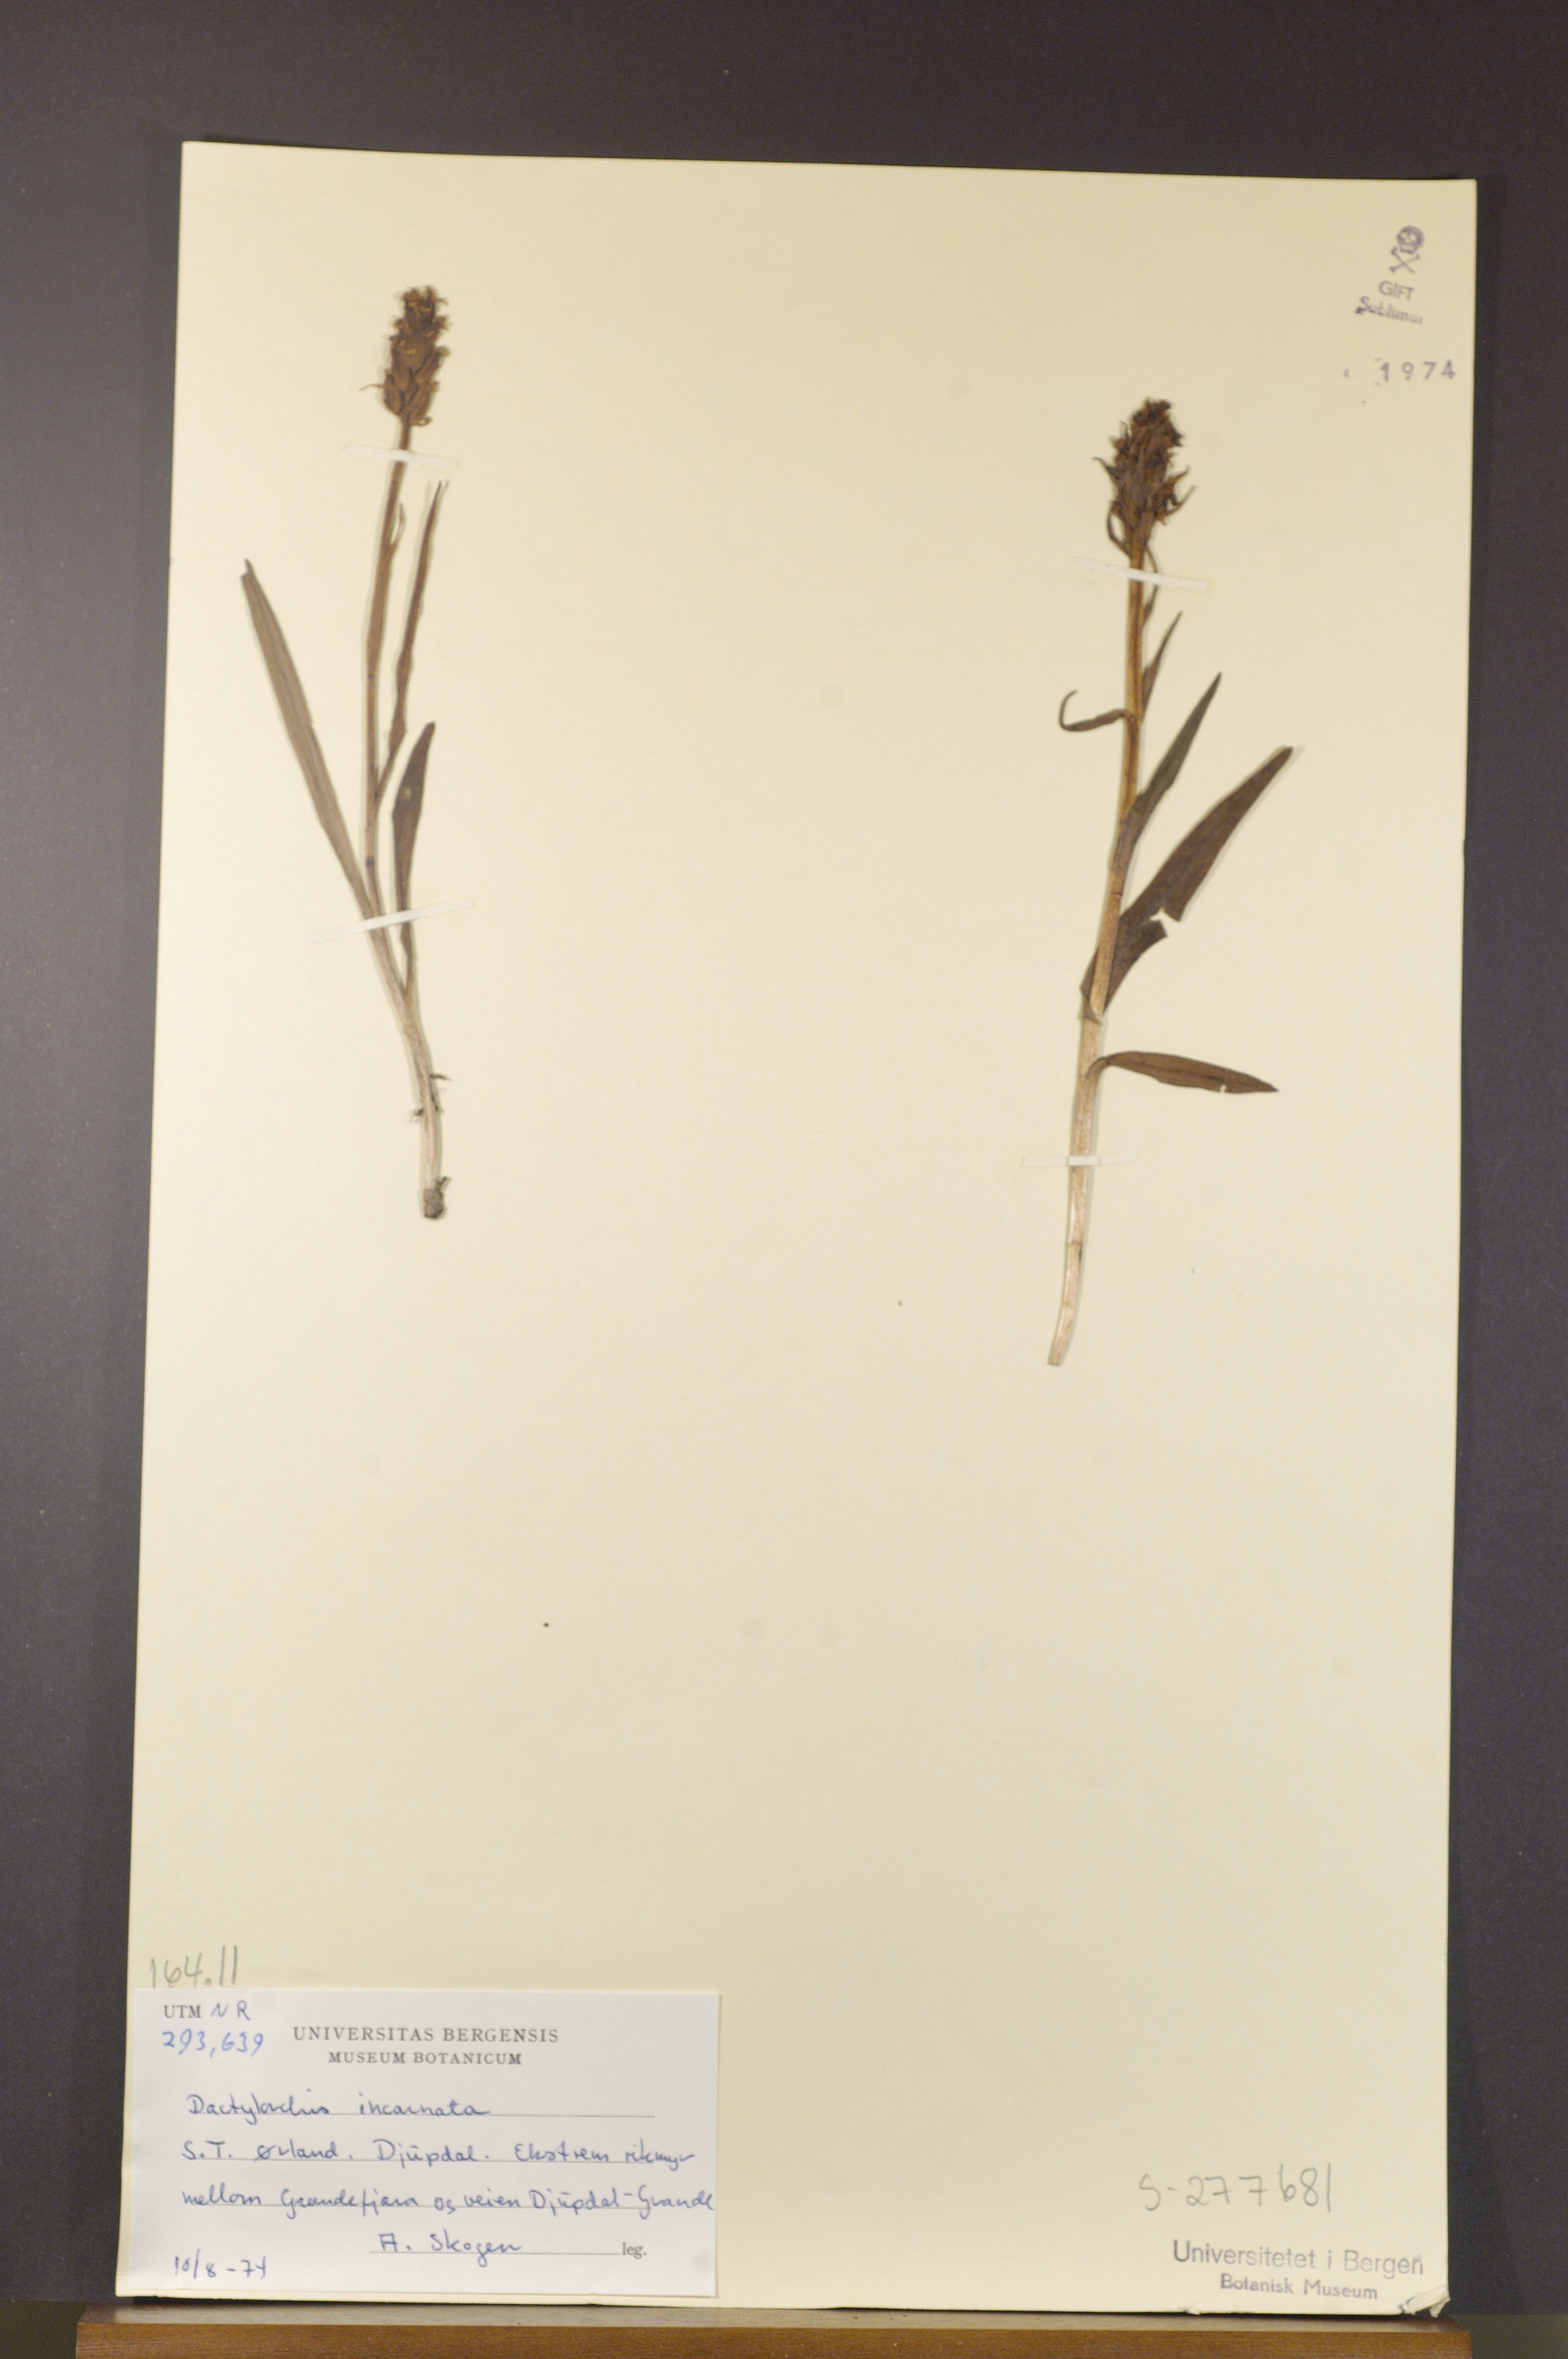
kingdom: Plantae
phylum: Tracheophyta
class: Liliopsida
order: Asparagales
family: Orchidaceae
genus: Dactylorhiza
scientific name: Dactylorhiza incarnata
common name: Early marsh-orchid
